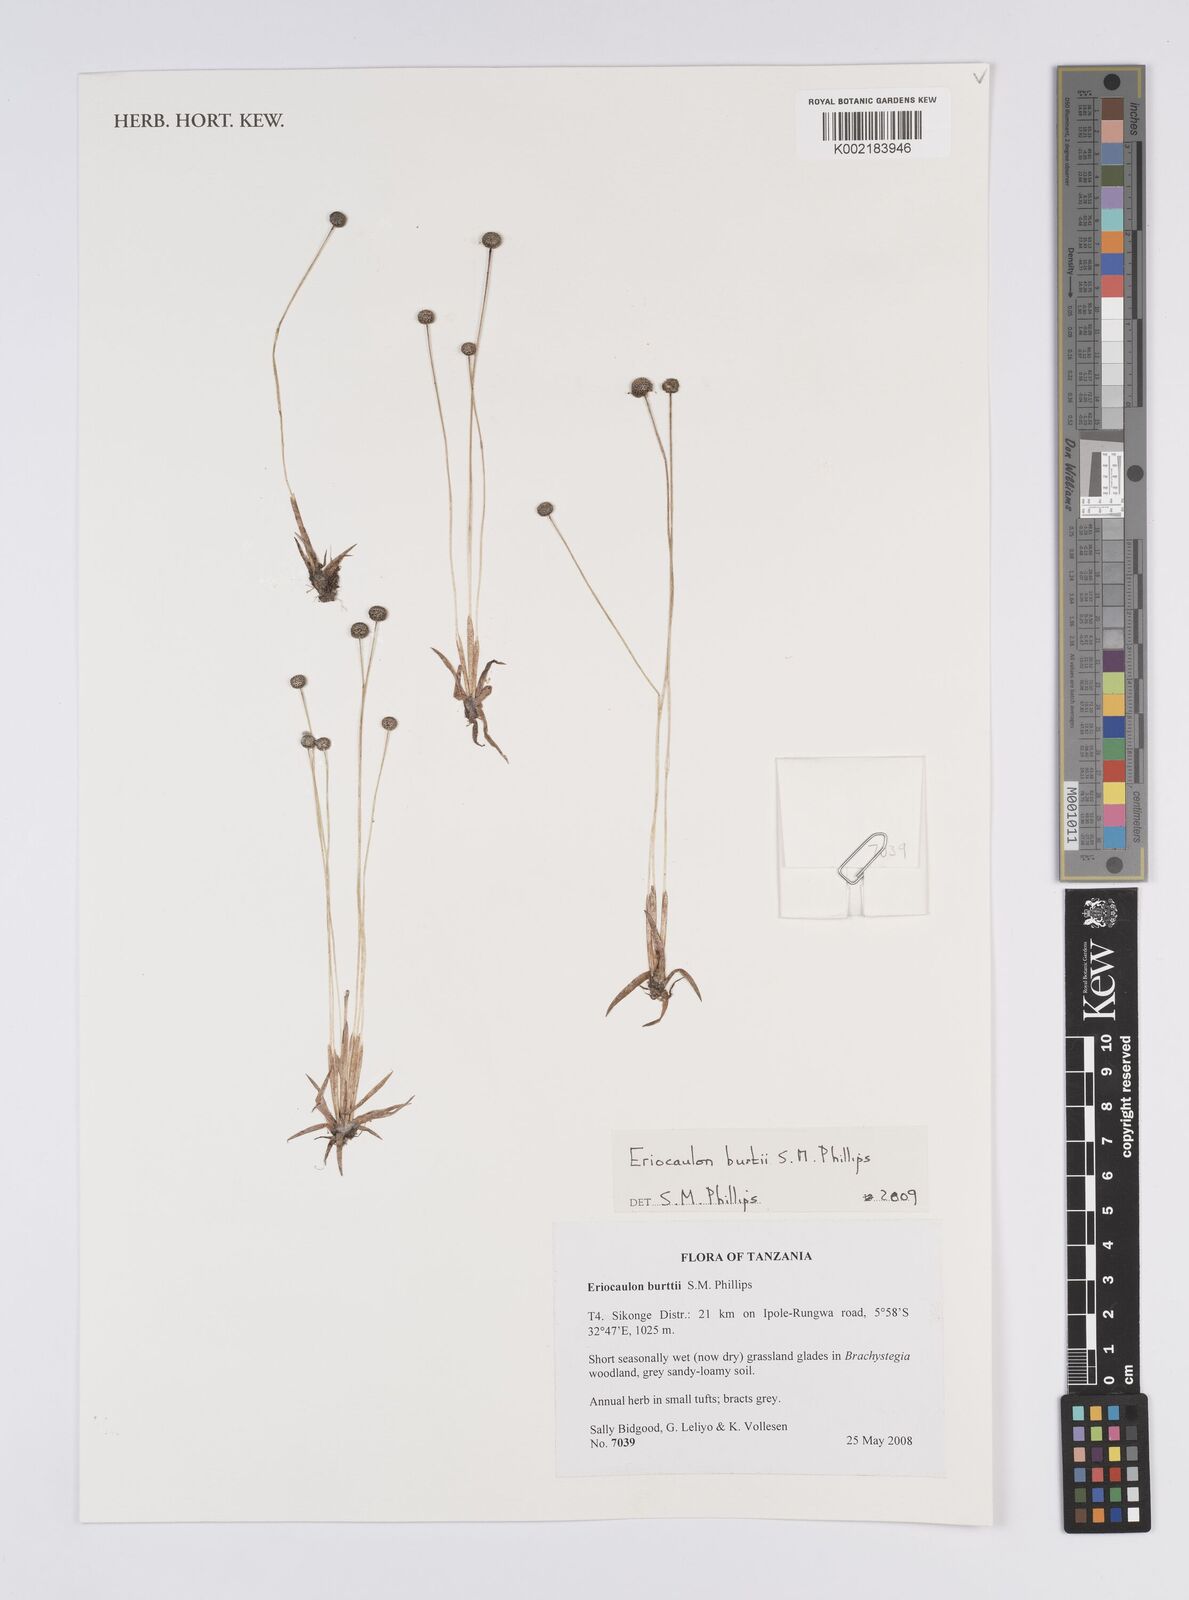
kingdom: Plantae
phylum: Tracheophyta
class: Liliopsida
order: Poales
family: Eriocaulaceae
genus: Eriocaulon
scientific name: Eriocaulon burttii
